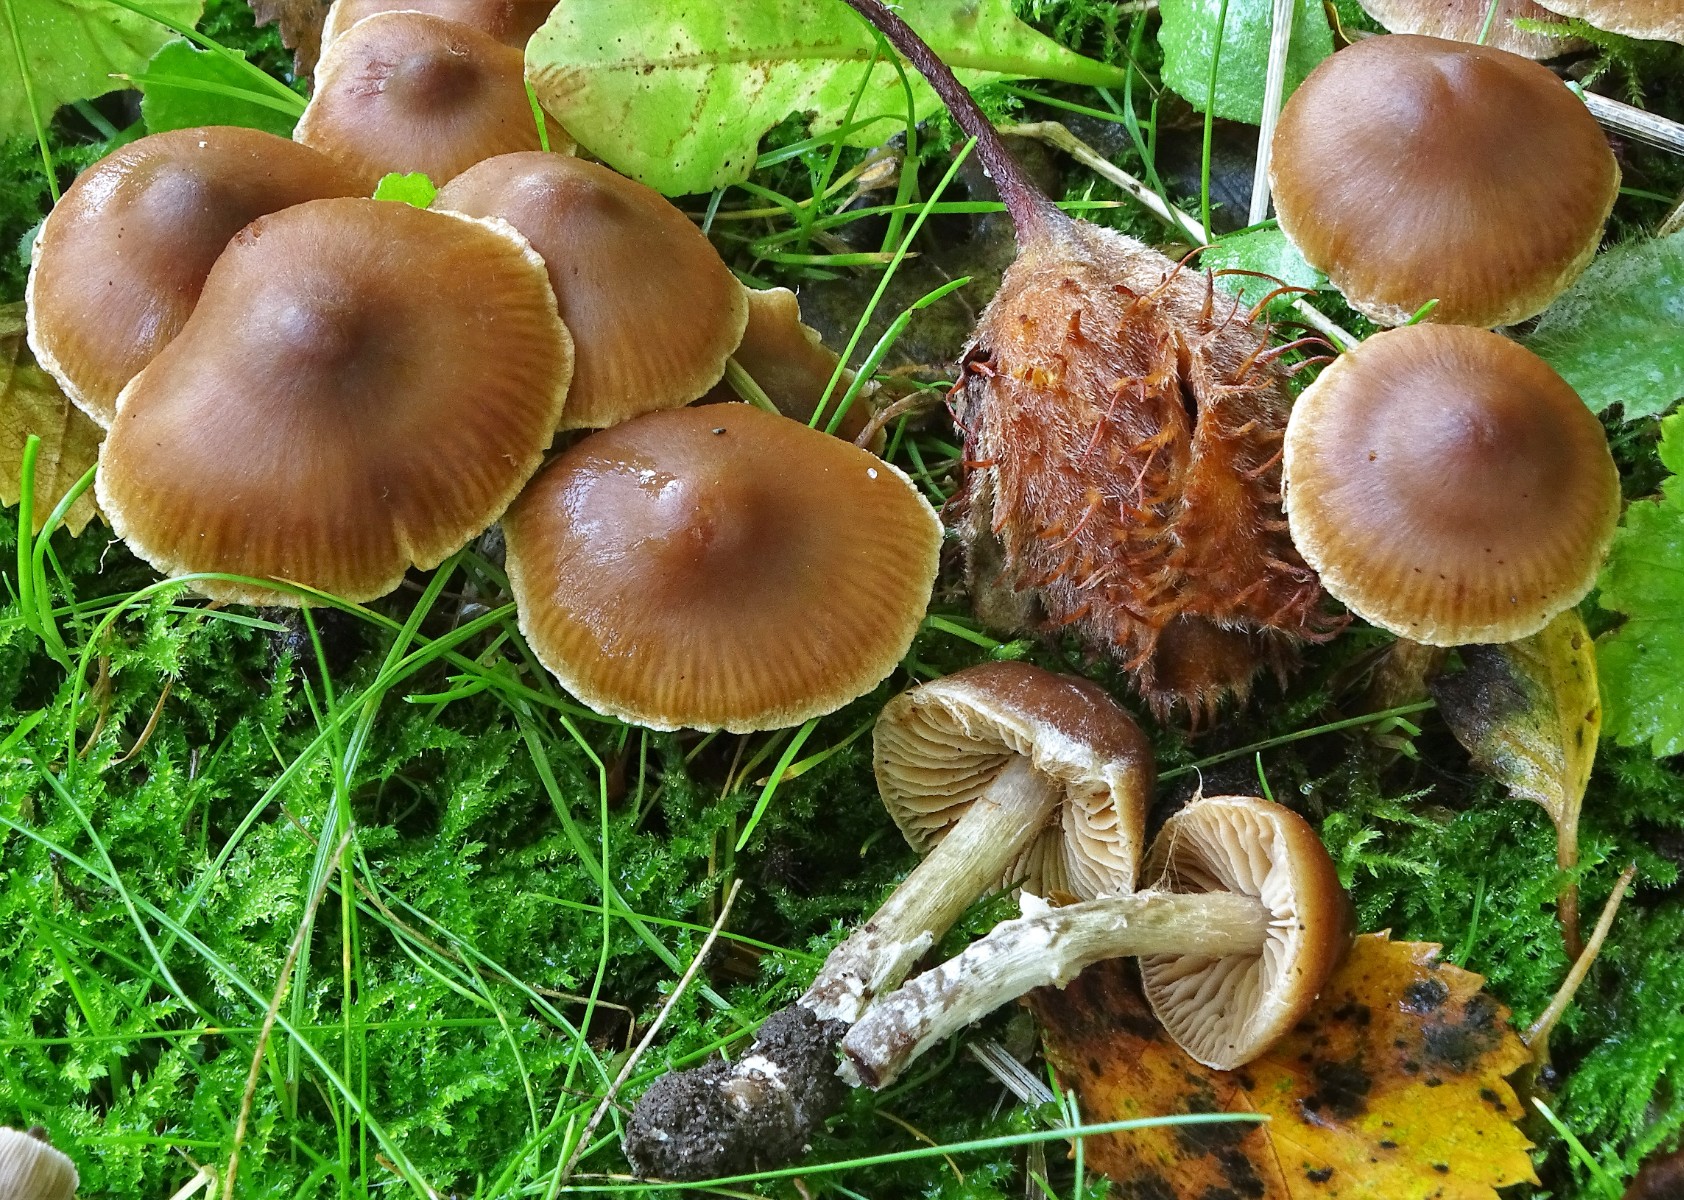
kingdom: Fungi
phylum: Basidiomycota
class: Agaricomycetes
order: Agaricales
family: Cortinariaceae
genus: Cortinarius
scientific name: Cortinarius
